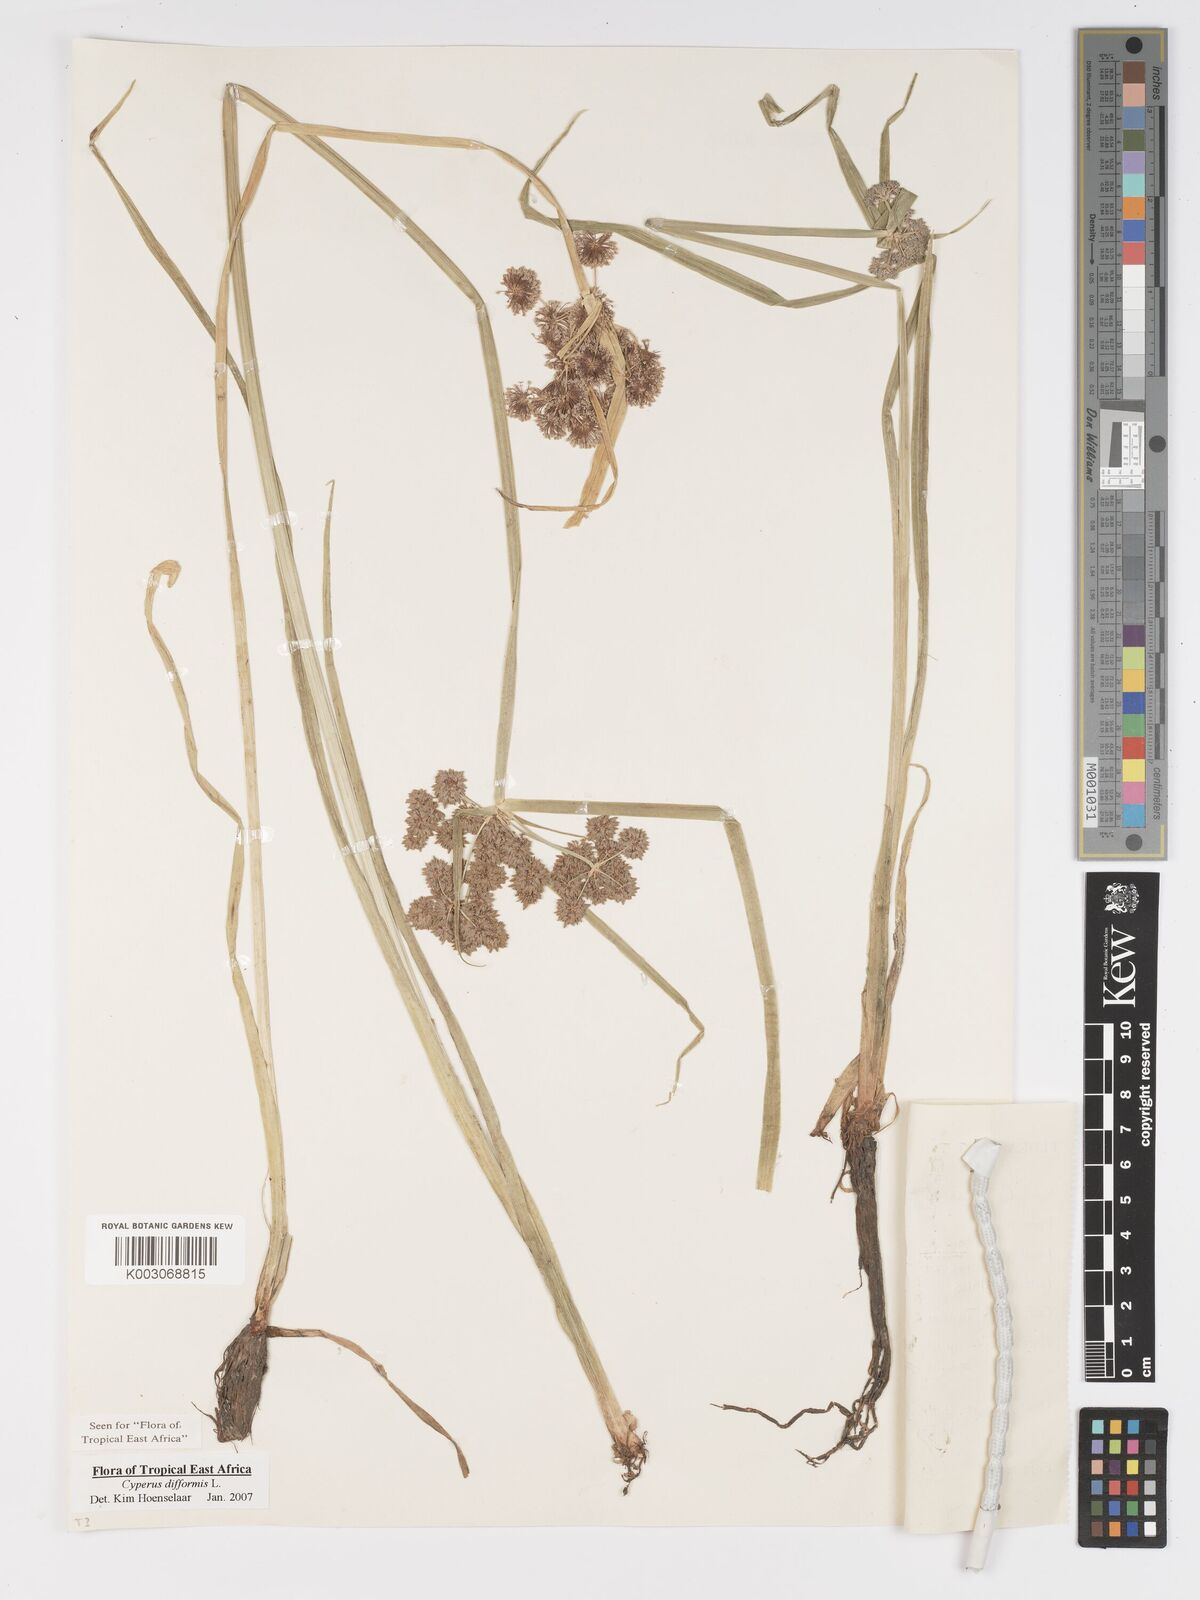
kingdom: Plantae
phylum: Tracheophyta
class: Liliopsida
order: Poales
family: Cyperaceae
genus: Cyperus
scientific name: Cyperus difformis
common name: Variable flatsedge
